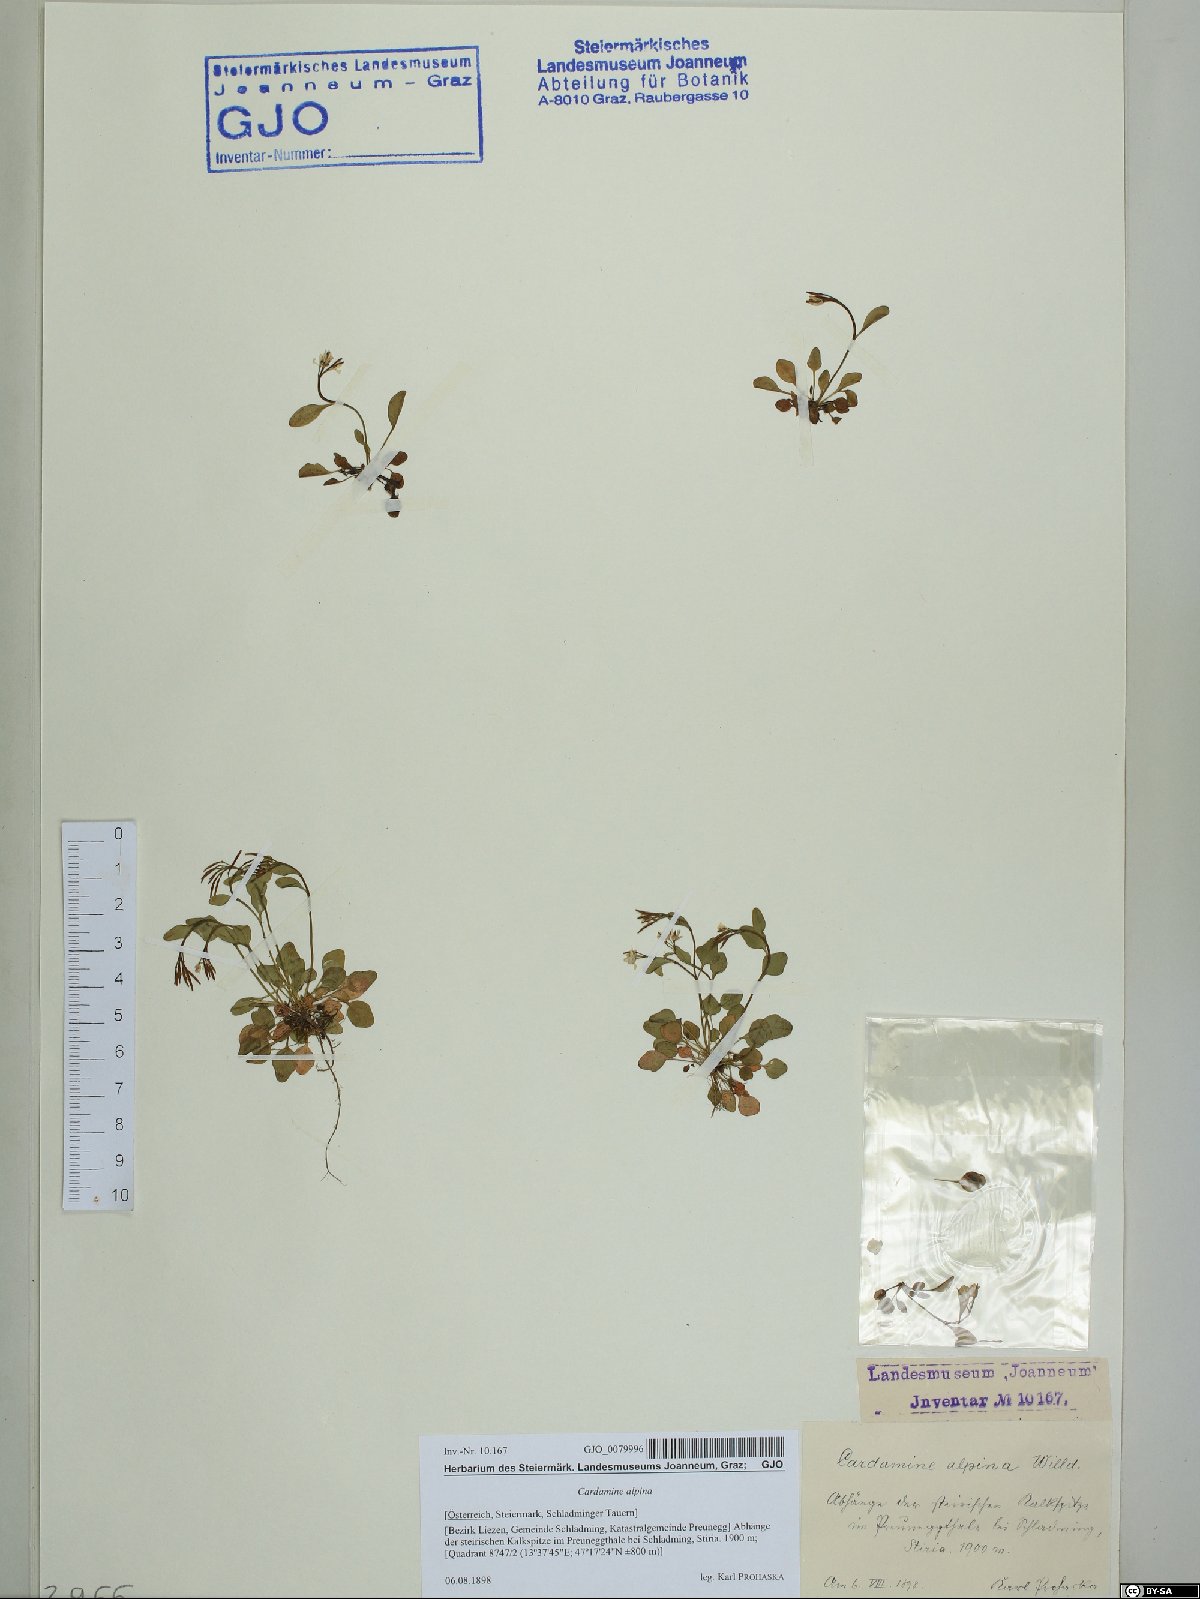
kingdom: Plantae
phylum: Tracheophyta
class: Magnoliopsida
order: Brassicales
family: Brassicaceae
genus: Cardamine
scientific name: Cardamine bellidifolia
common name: Alpine bittercress
